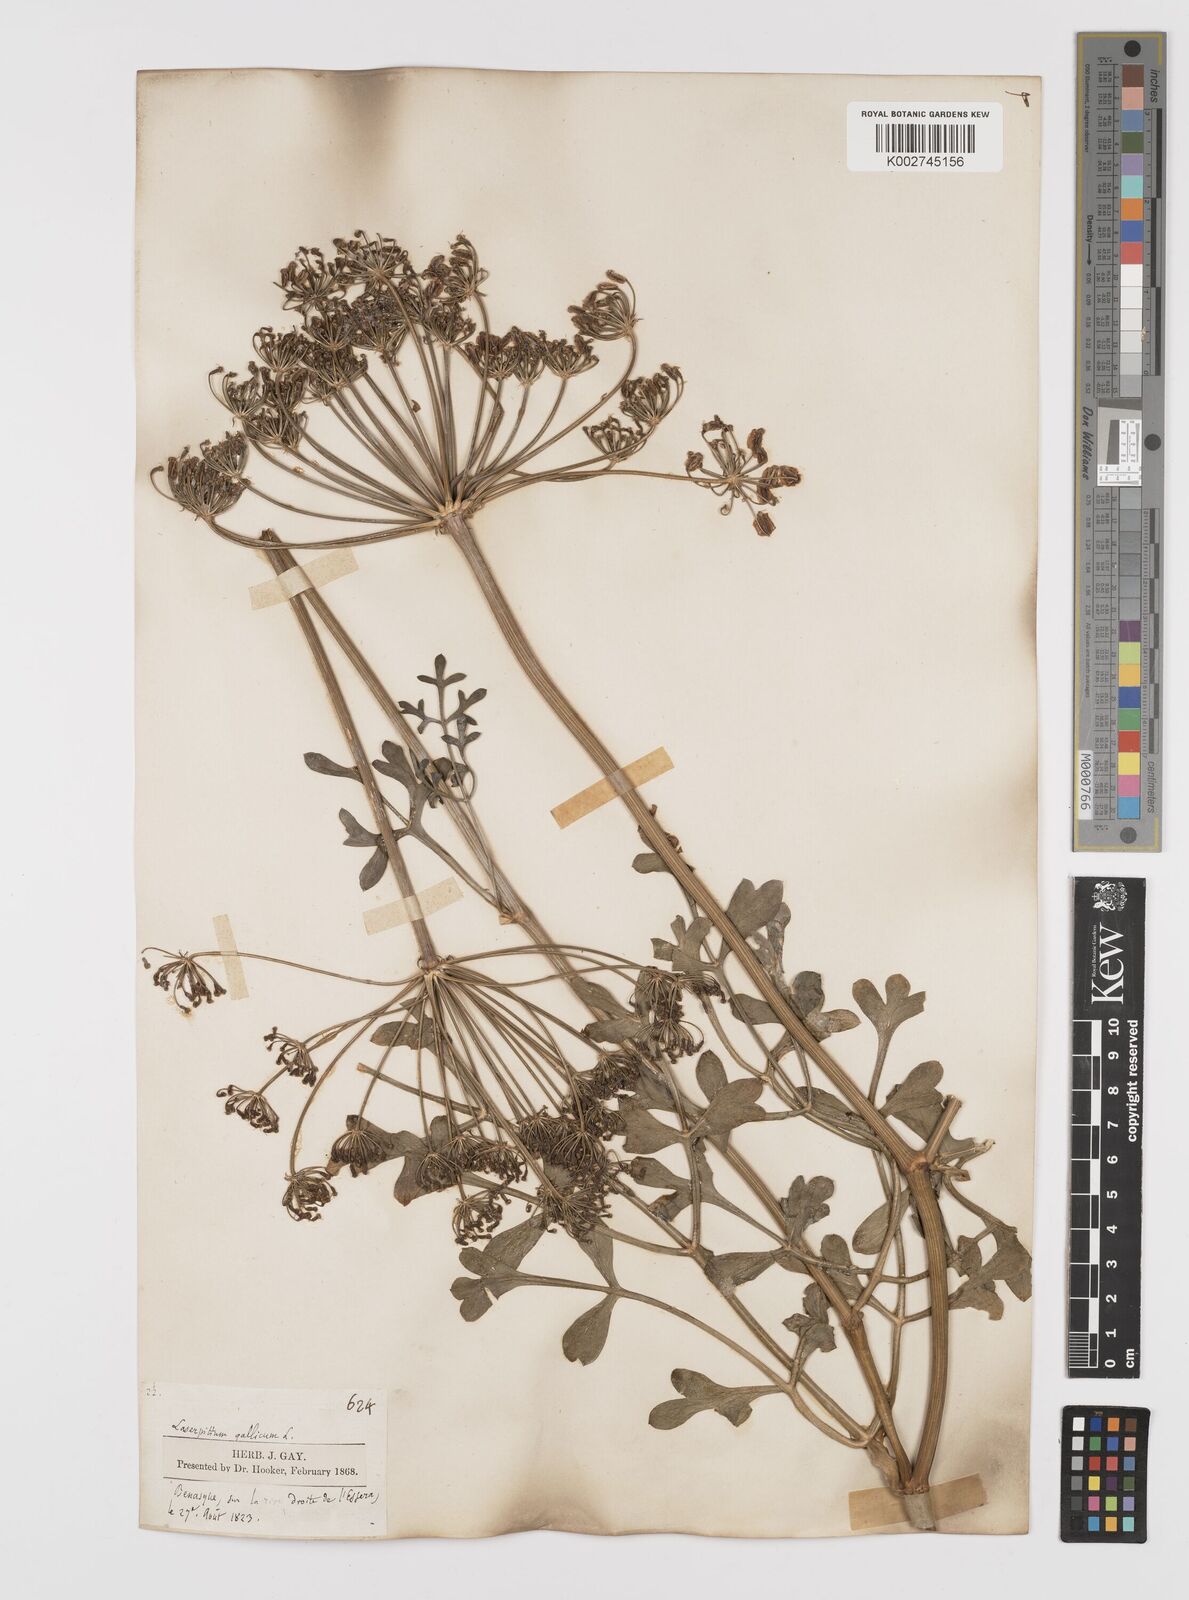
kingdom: Plantae
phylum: Tracheophyta
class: Magnoliopsida
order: Apiales
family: Apiaceae
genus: Laserpitium
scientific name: Laserpitium gallicum
